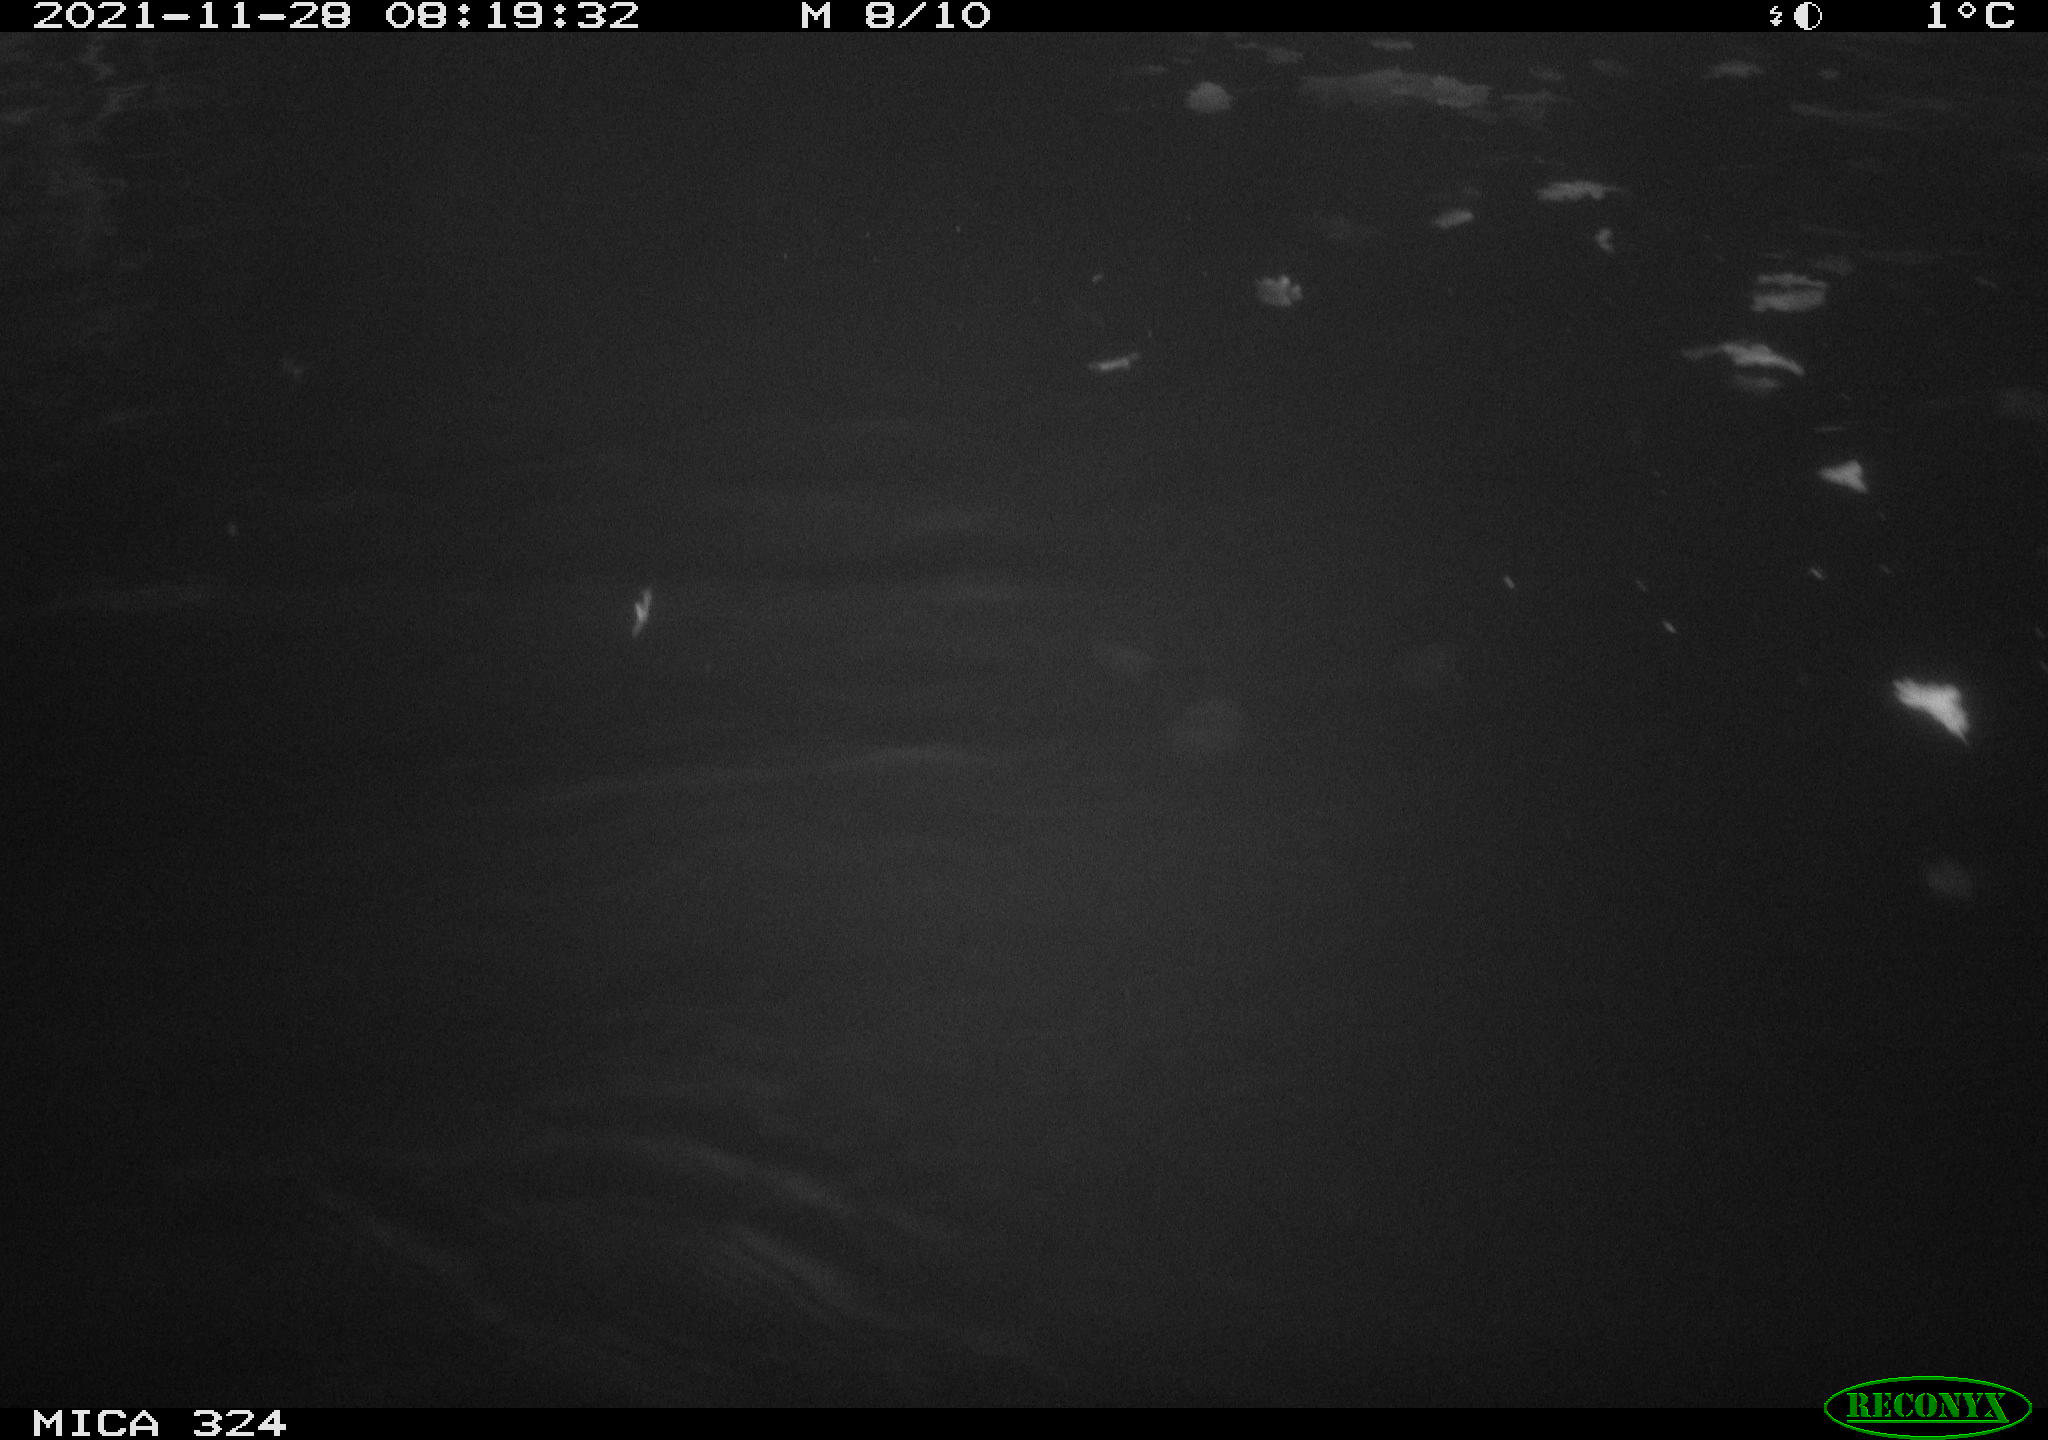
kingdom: Animalia
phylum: Chordata
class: Aves
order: Anseriformes
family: Anatidae
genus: Anas
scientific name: Anas platyrhynchos
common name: Mallard
